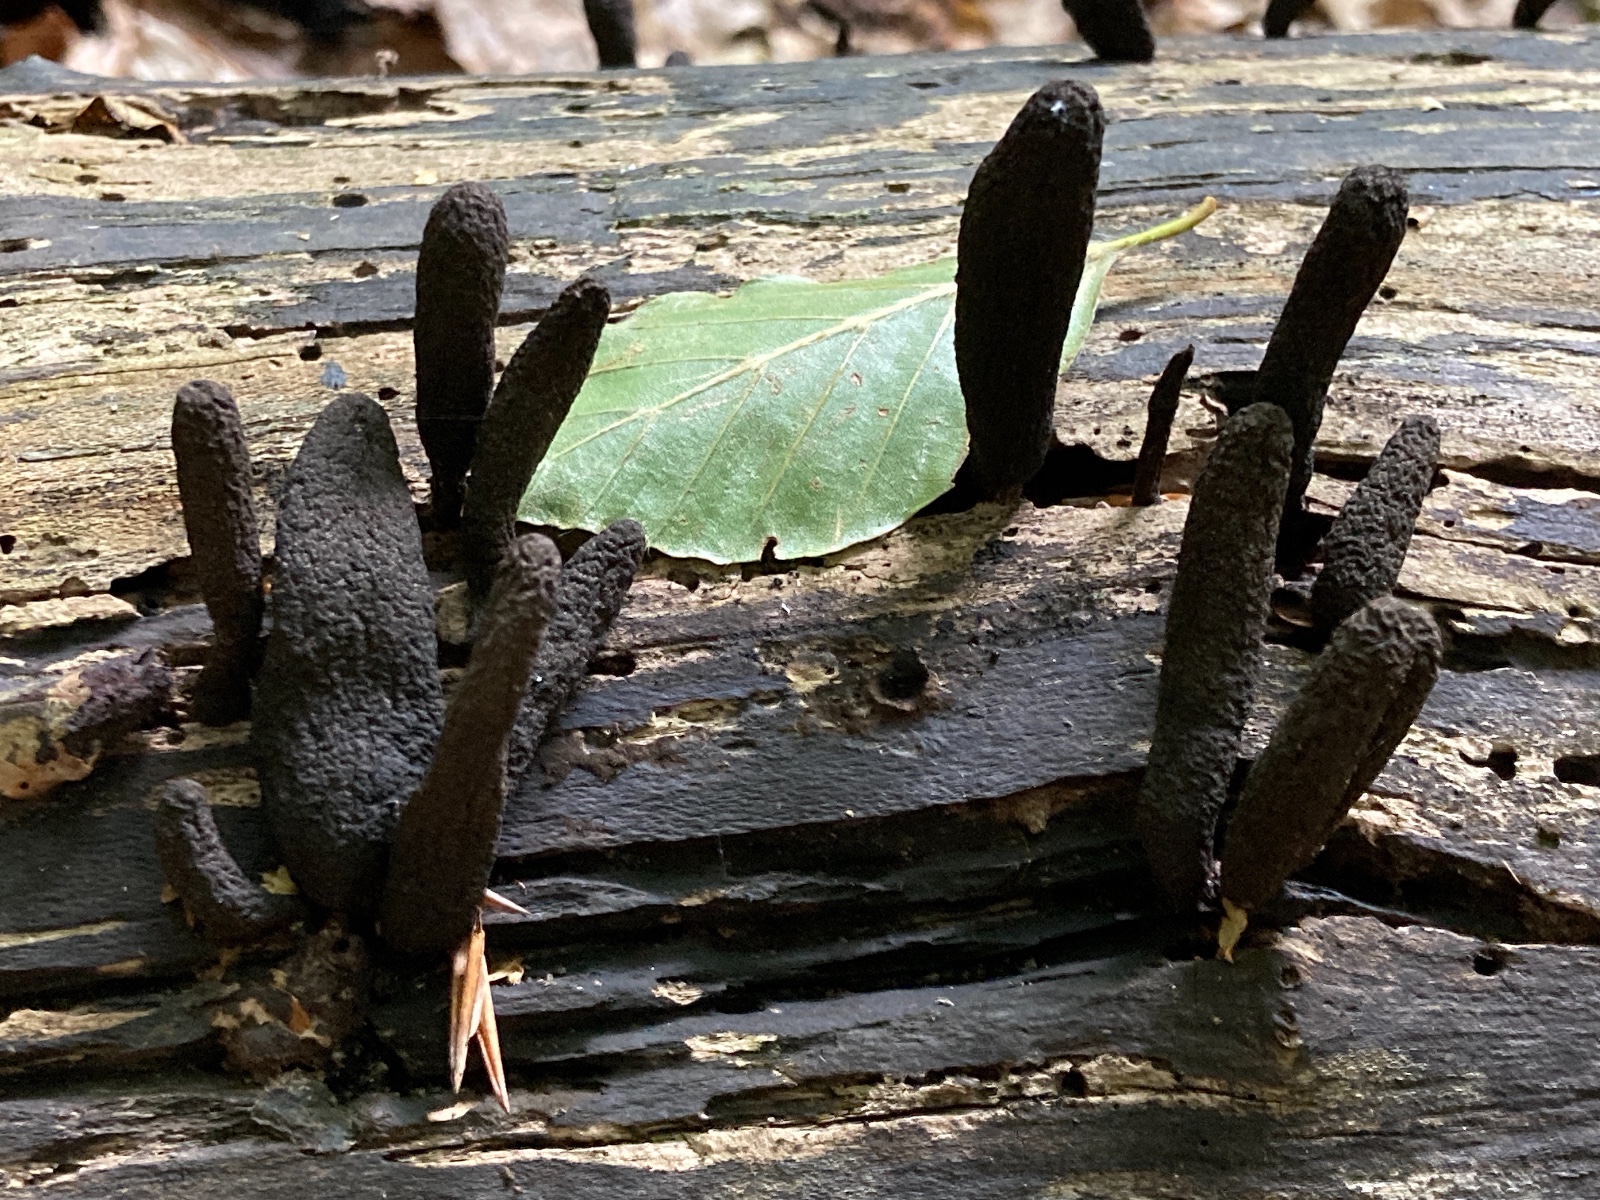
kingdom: Fungi
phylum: Ascomycota
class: Sordariomycetes
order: Xylariales
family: Xylariaceae
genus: Xylaria
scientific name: Xylaria longipes
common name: slank stødsvamp
